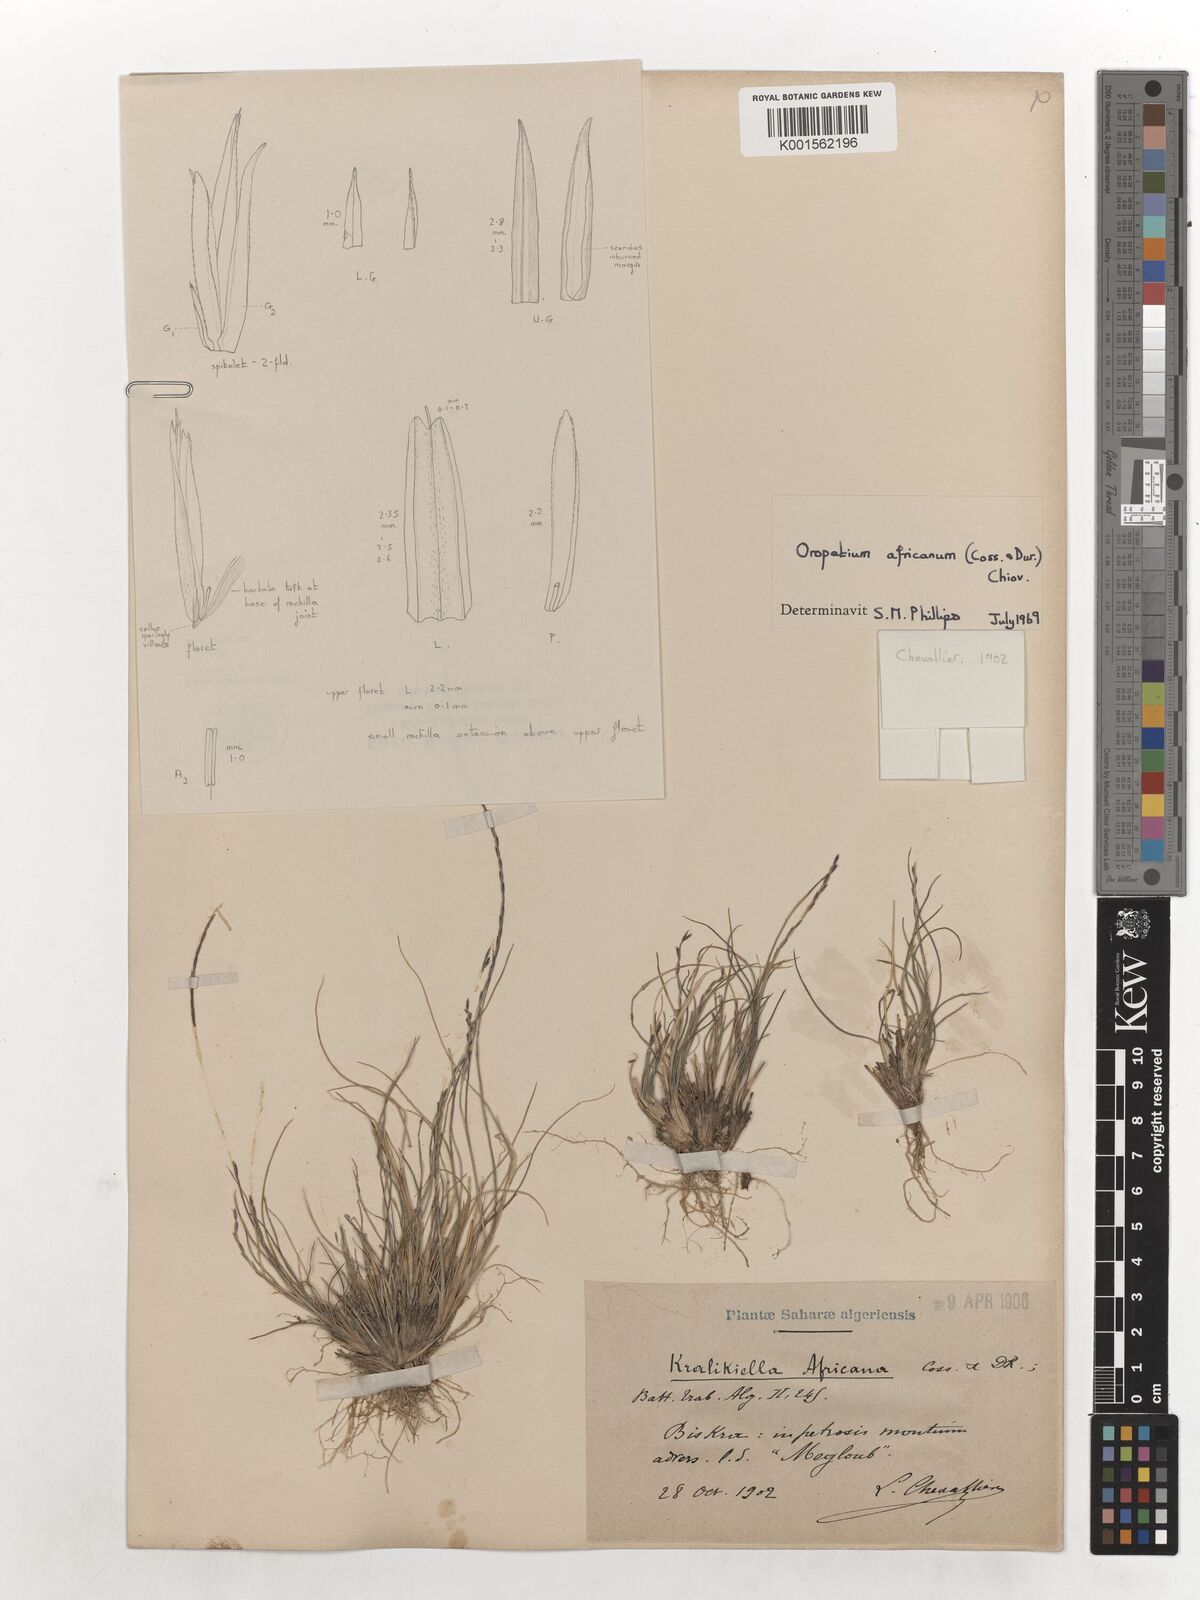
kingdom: Plantae
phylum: Tracheophyta
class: Liliopsida
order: Poales
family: Poaceae
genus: Tripogon
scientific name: Tripogon africanus
